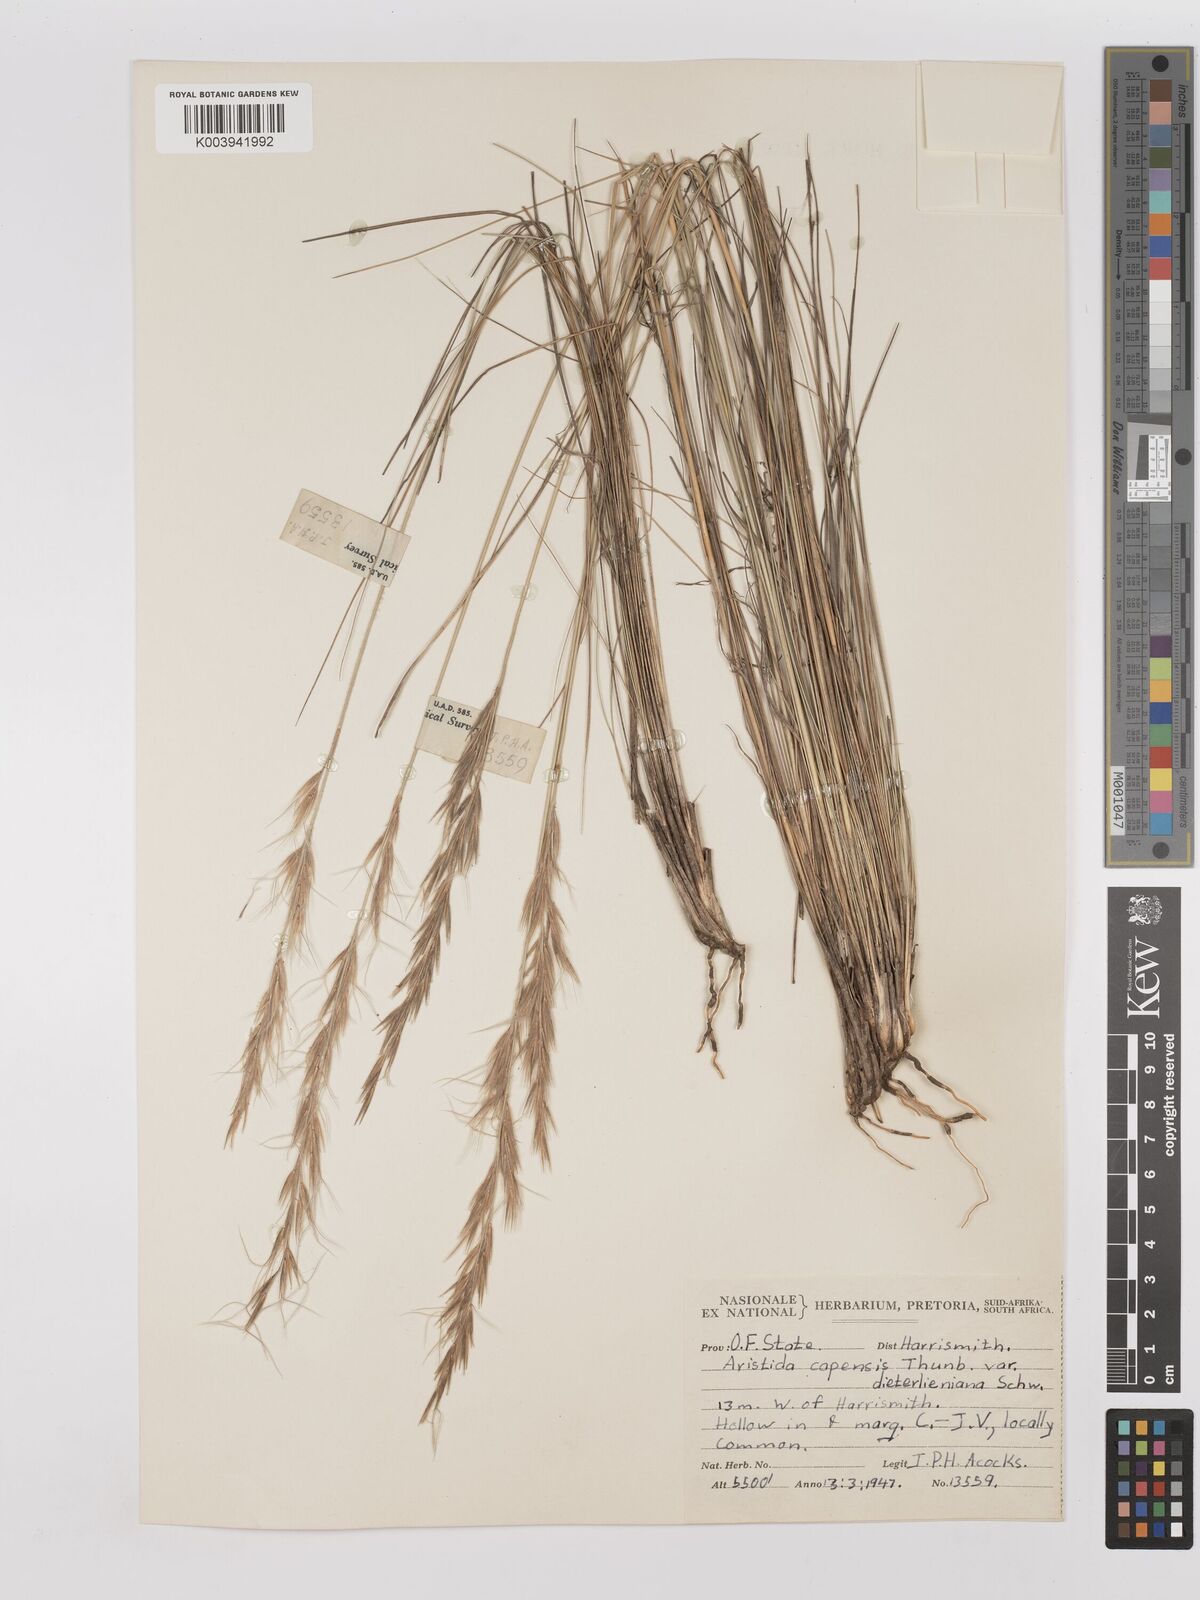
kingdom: Plantae
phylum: Tracheophyta
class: Liliopsida
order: Poales
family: Poaceae
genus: Stipagrostis
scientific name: Stipagrostis zeyheri
